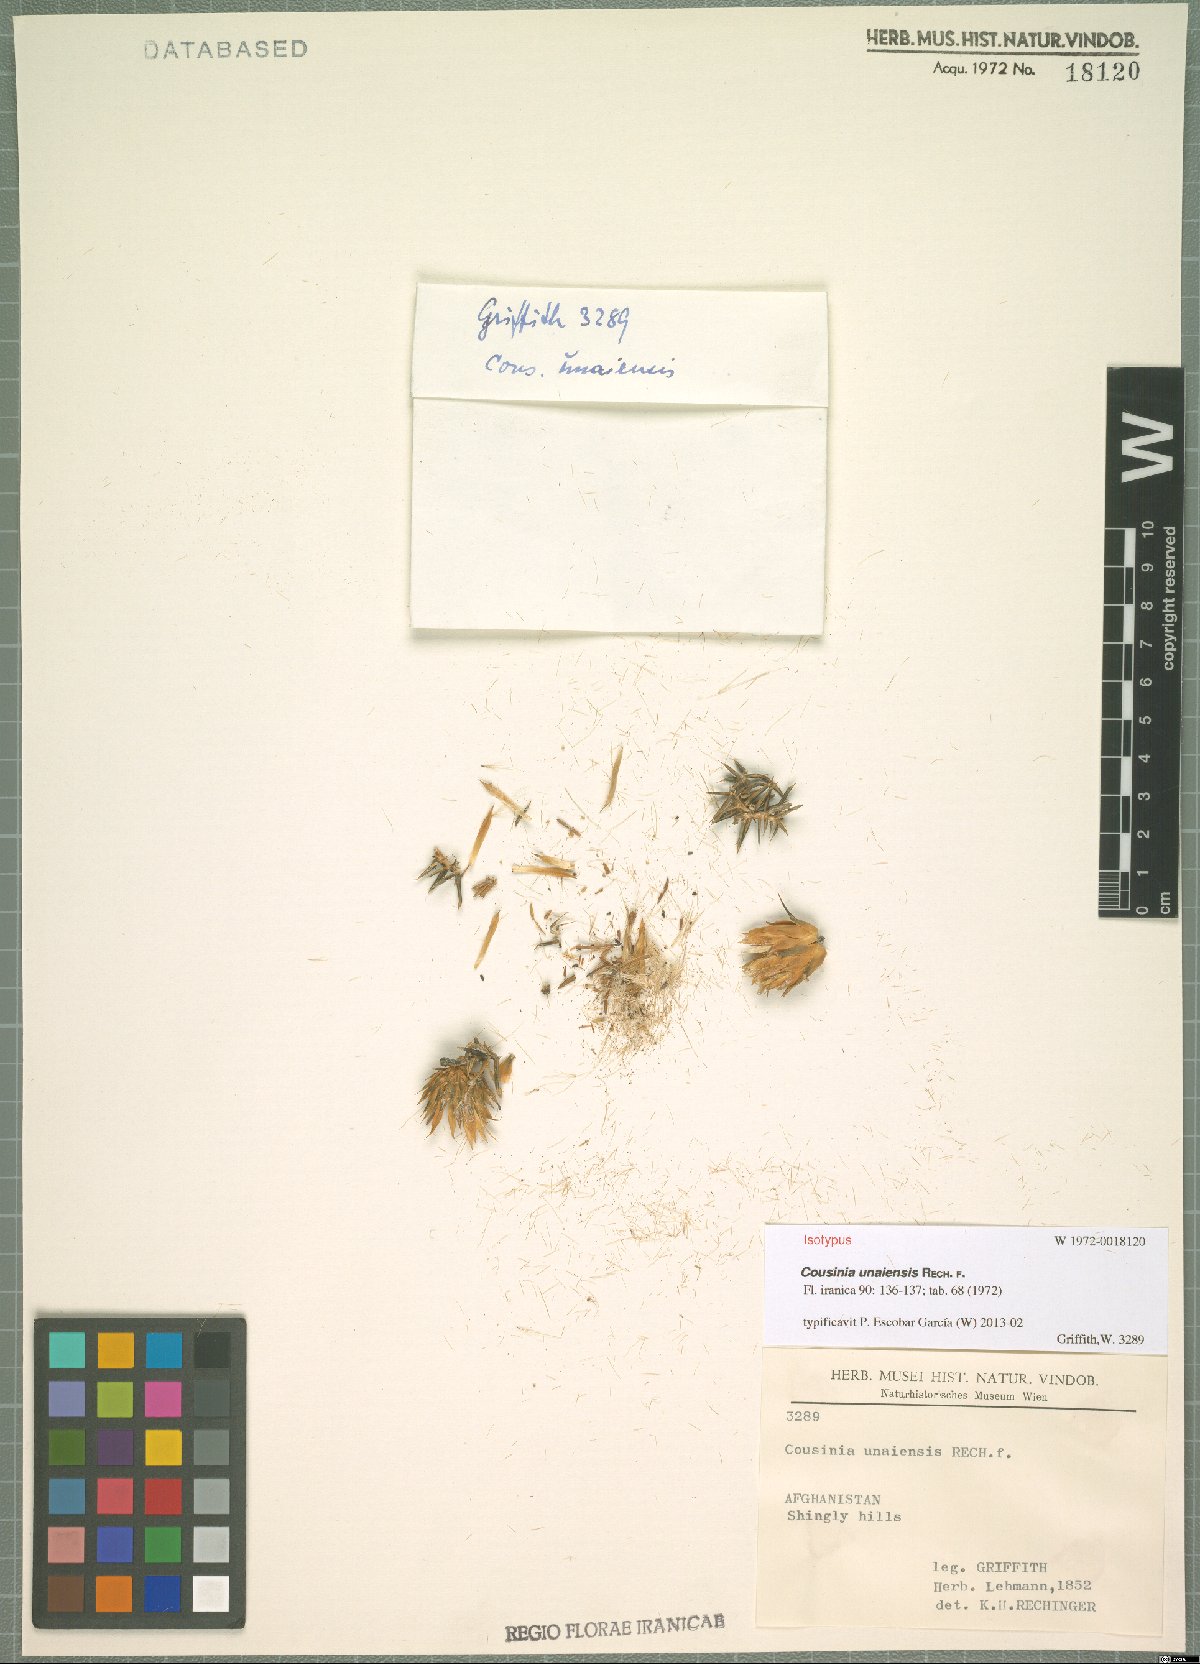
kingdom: Plantae
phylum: Tracheophyta
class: Magnoliopsida
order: Asterales
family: Asteraceae
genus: Cousinia
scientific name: Cousinia unaiensis
